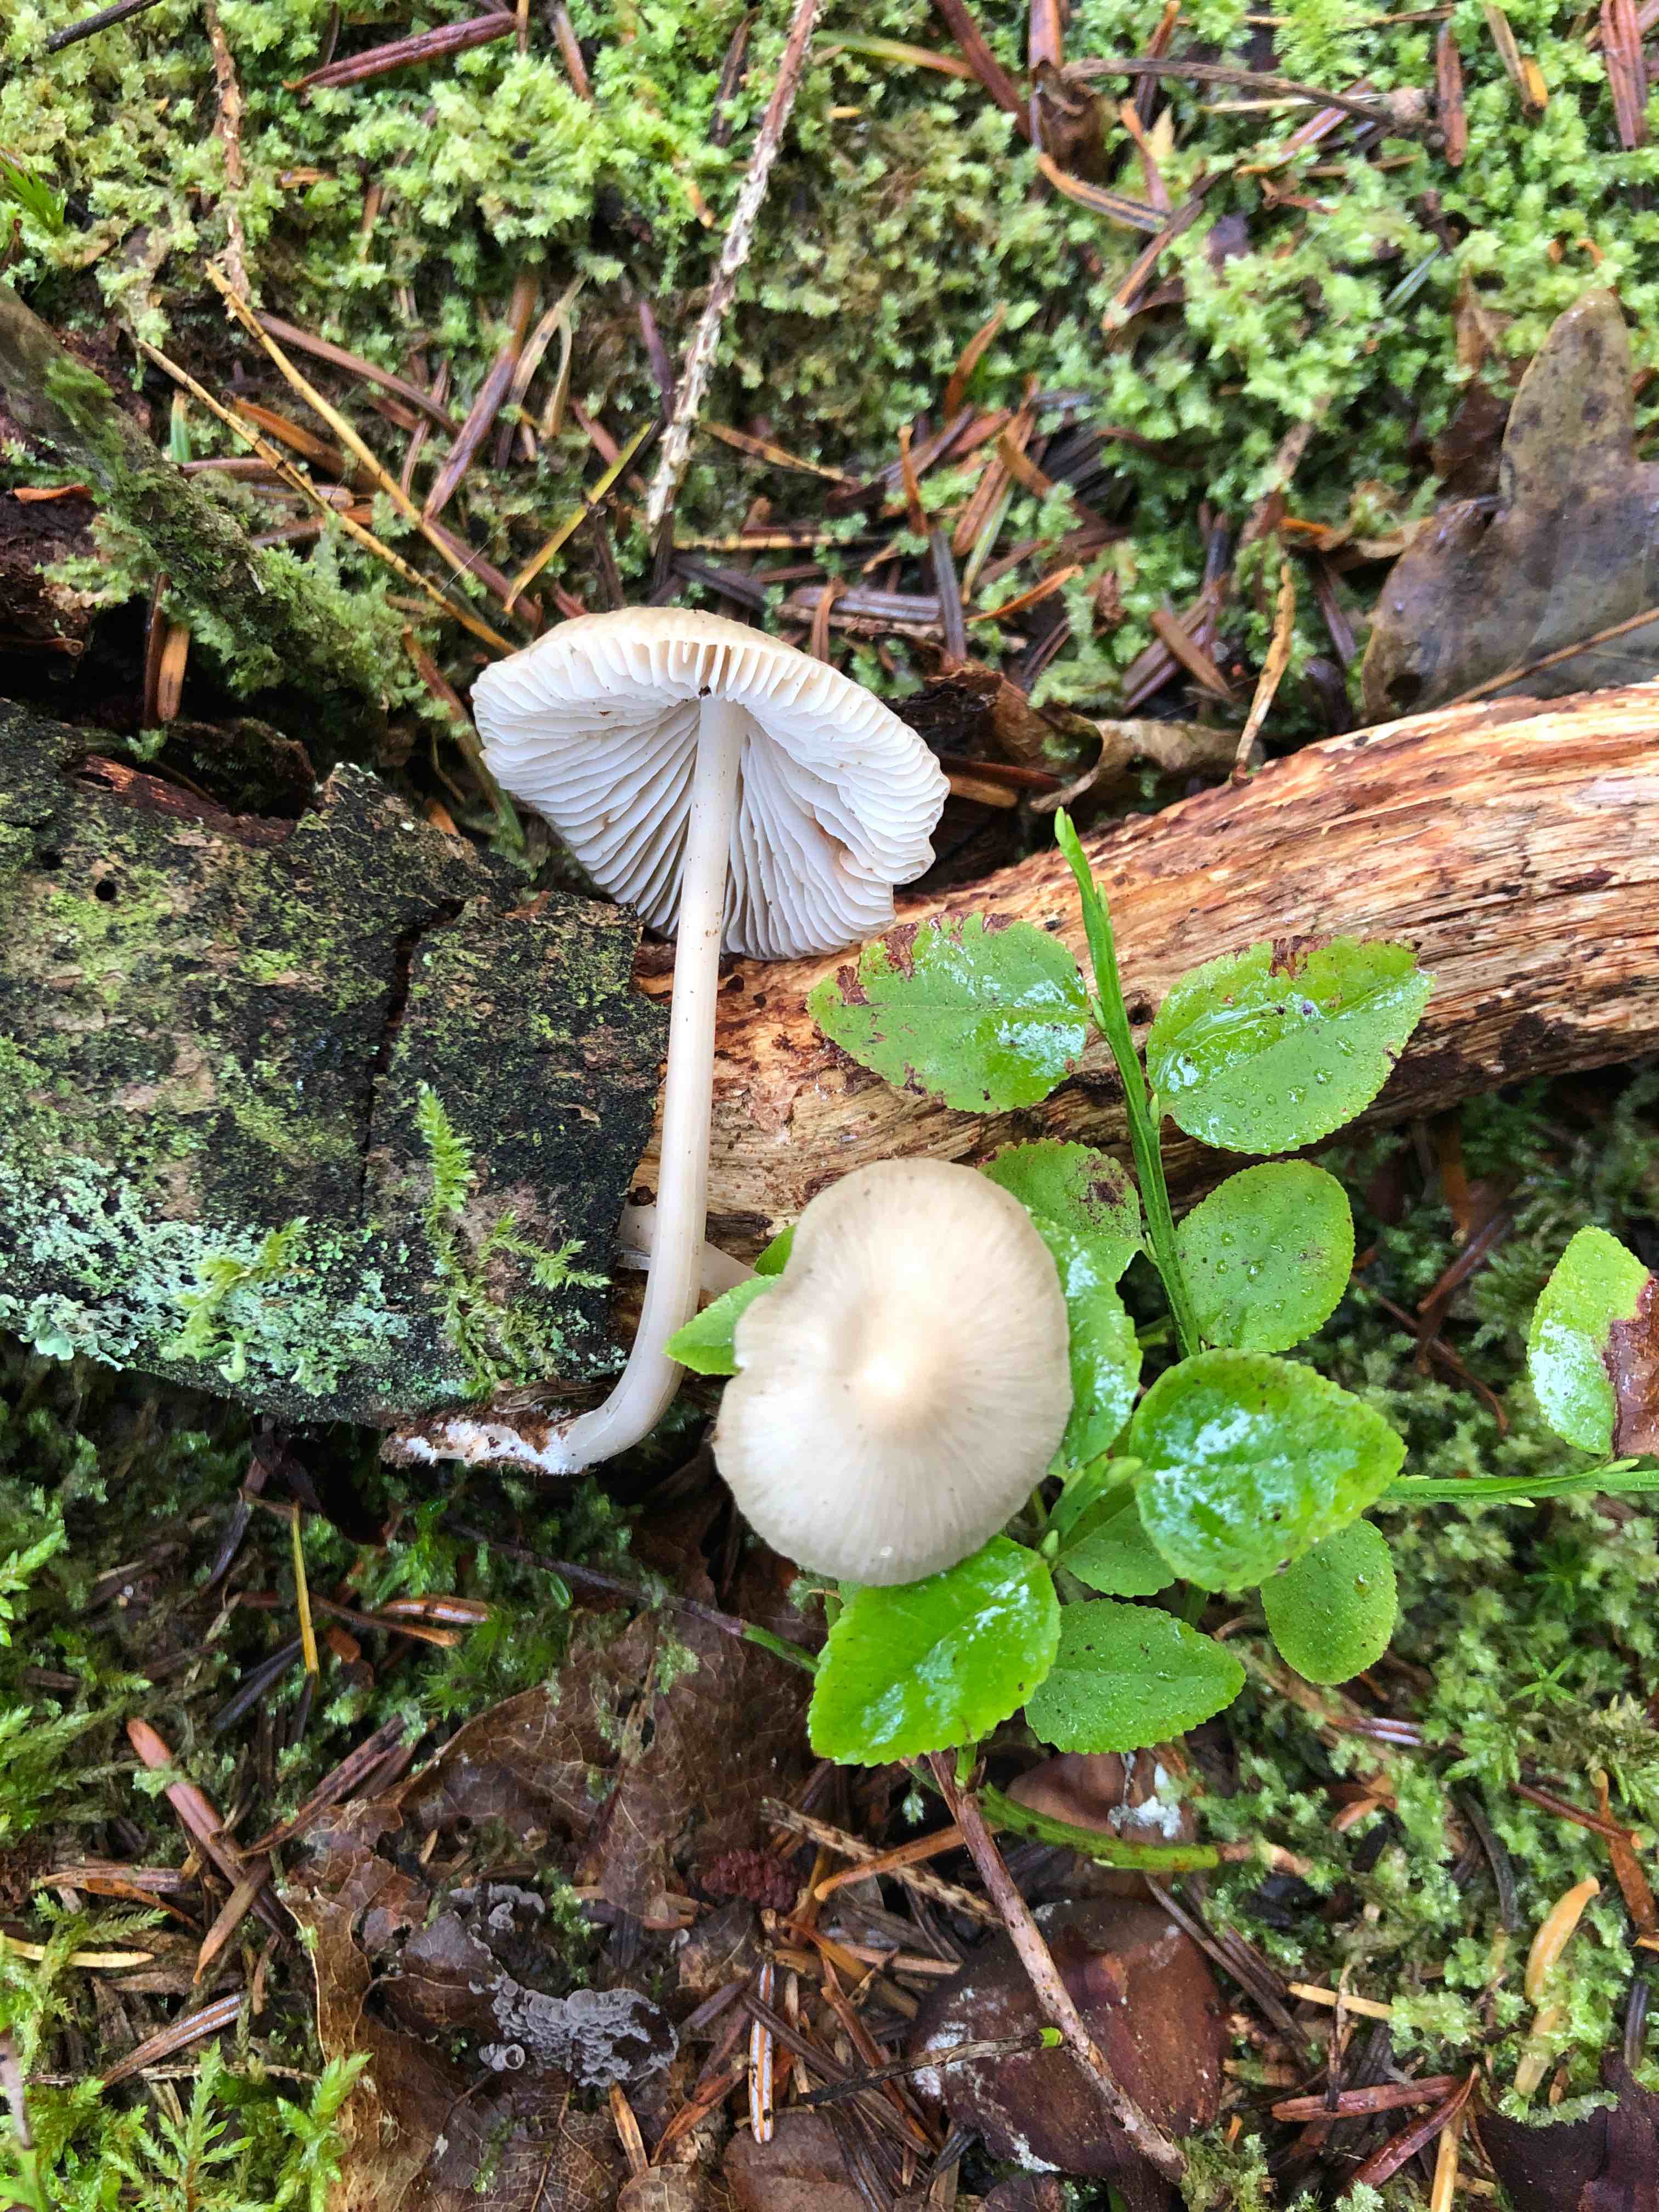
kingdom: Fungi
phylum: Basidiomycota
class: Agaricomycetes
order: Agaricales
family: Mycenaceae
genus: Mycena
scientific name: Mycena galericulata
